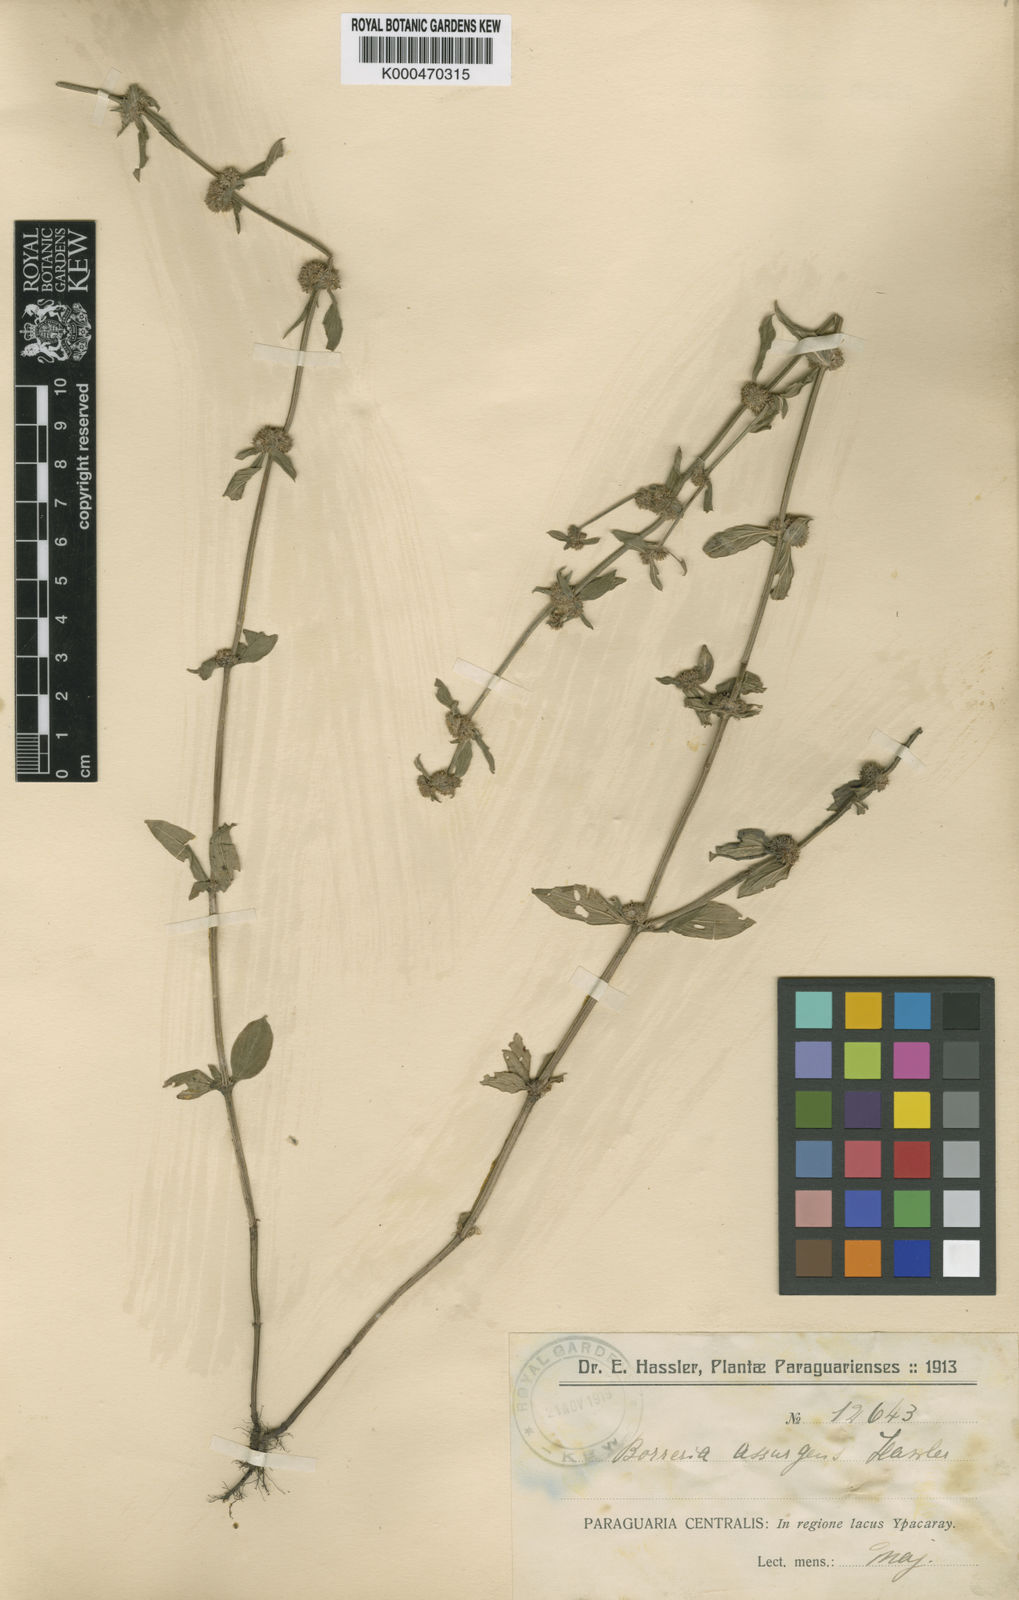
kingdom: Plantae
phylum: Tracheophyta
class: Magnoliopsida
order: Gentianales
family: Rubiaceae
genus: Spermacoce
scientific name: Spermacoce eryngioides
